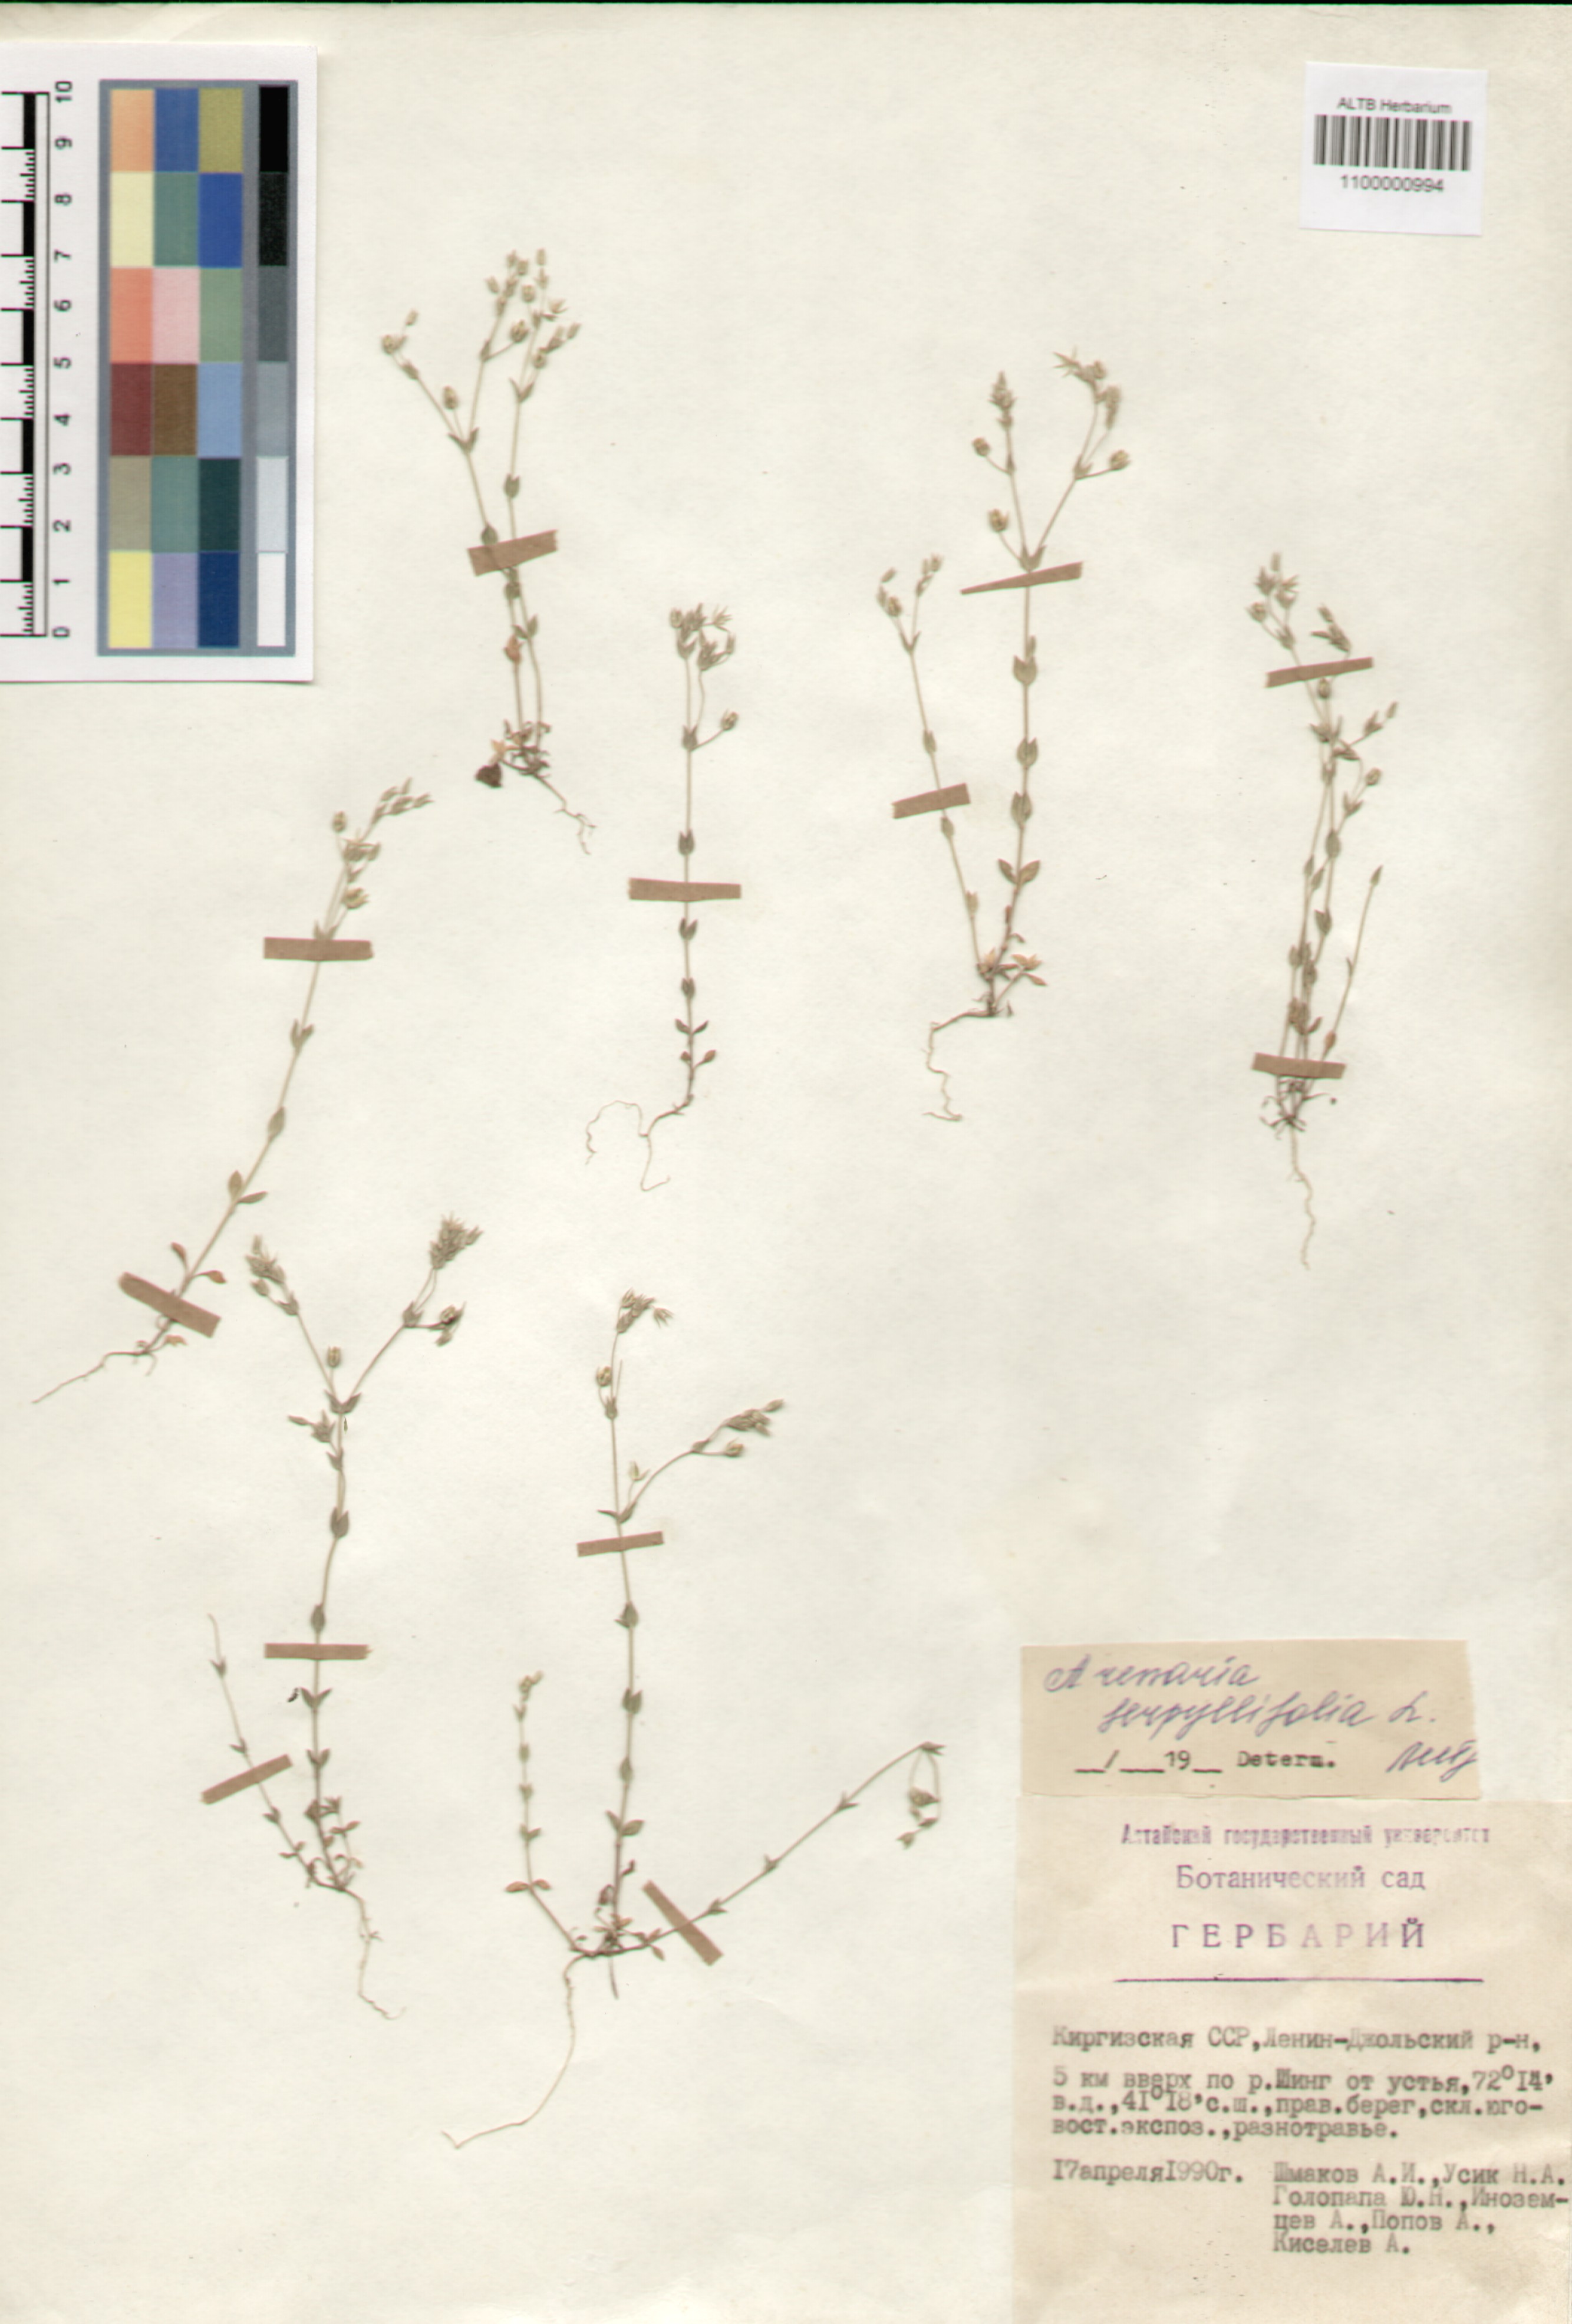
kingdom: Plantae
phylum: Tracheophyta
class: Magnoliopsida
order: Caryophyllales
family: Caryophyllaceae
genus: Arenaria
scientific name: Arenaria serpyllifolia
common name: Thyme-leaved sandwort
